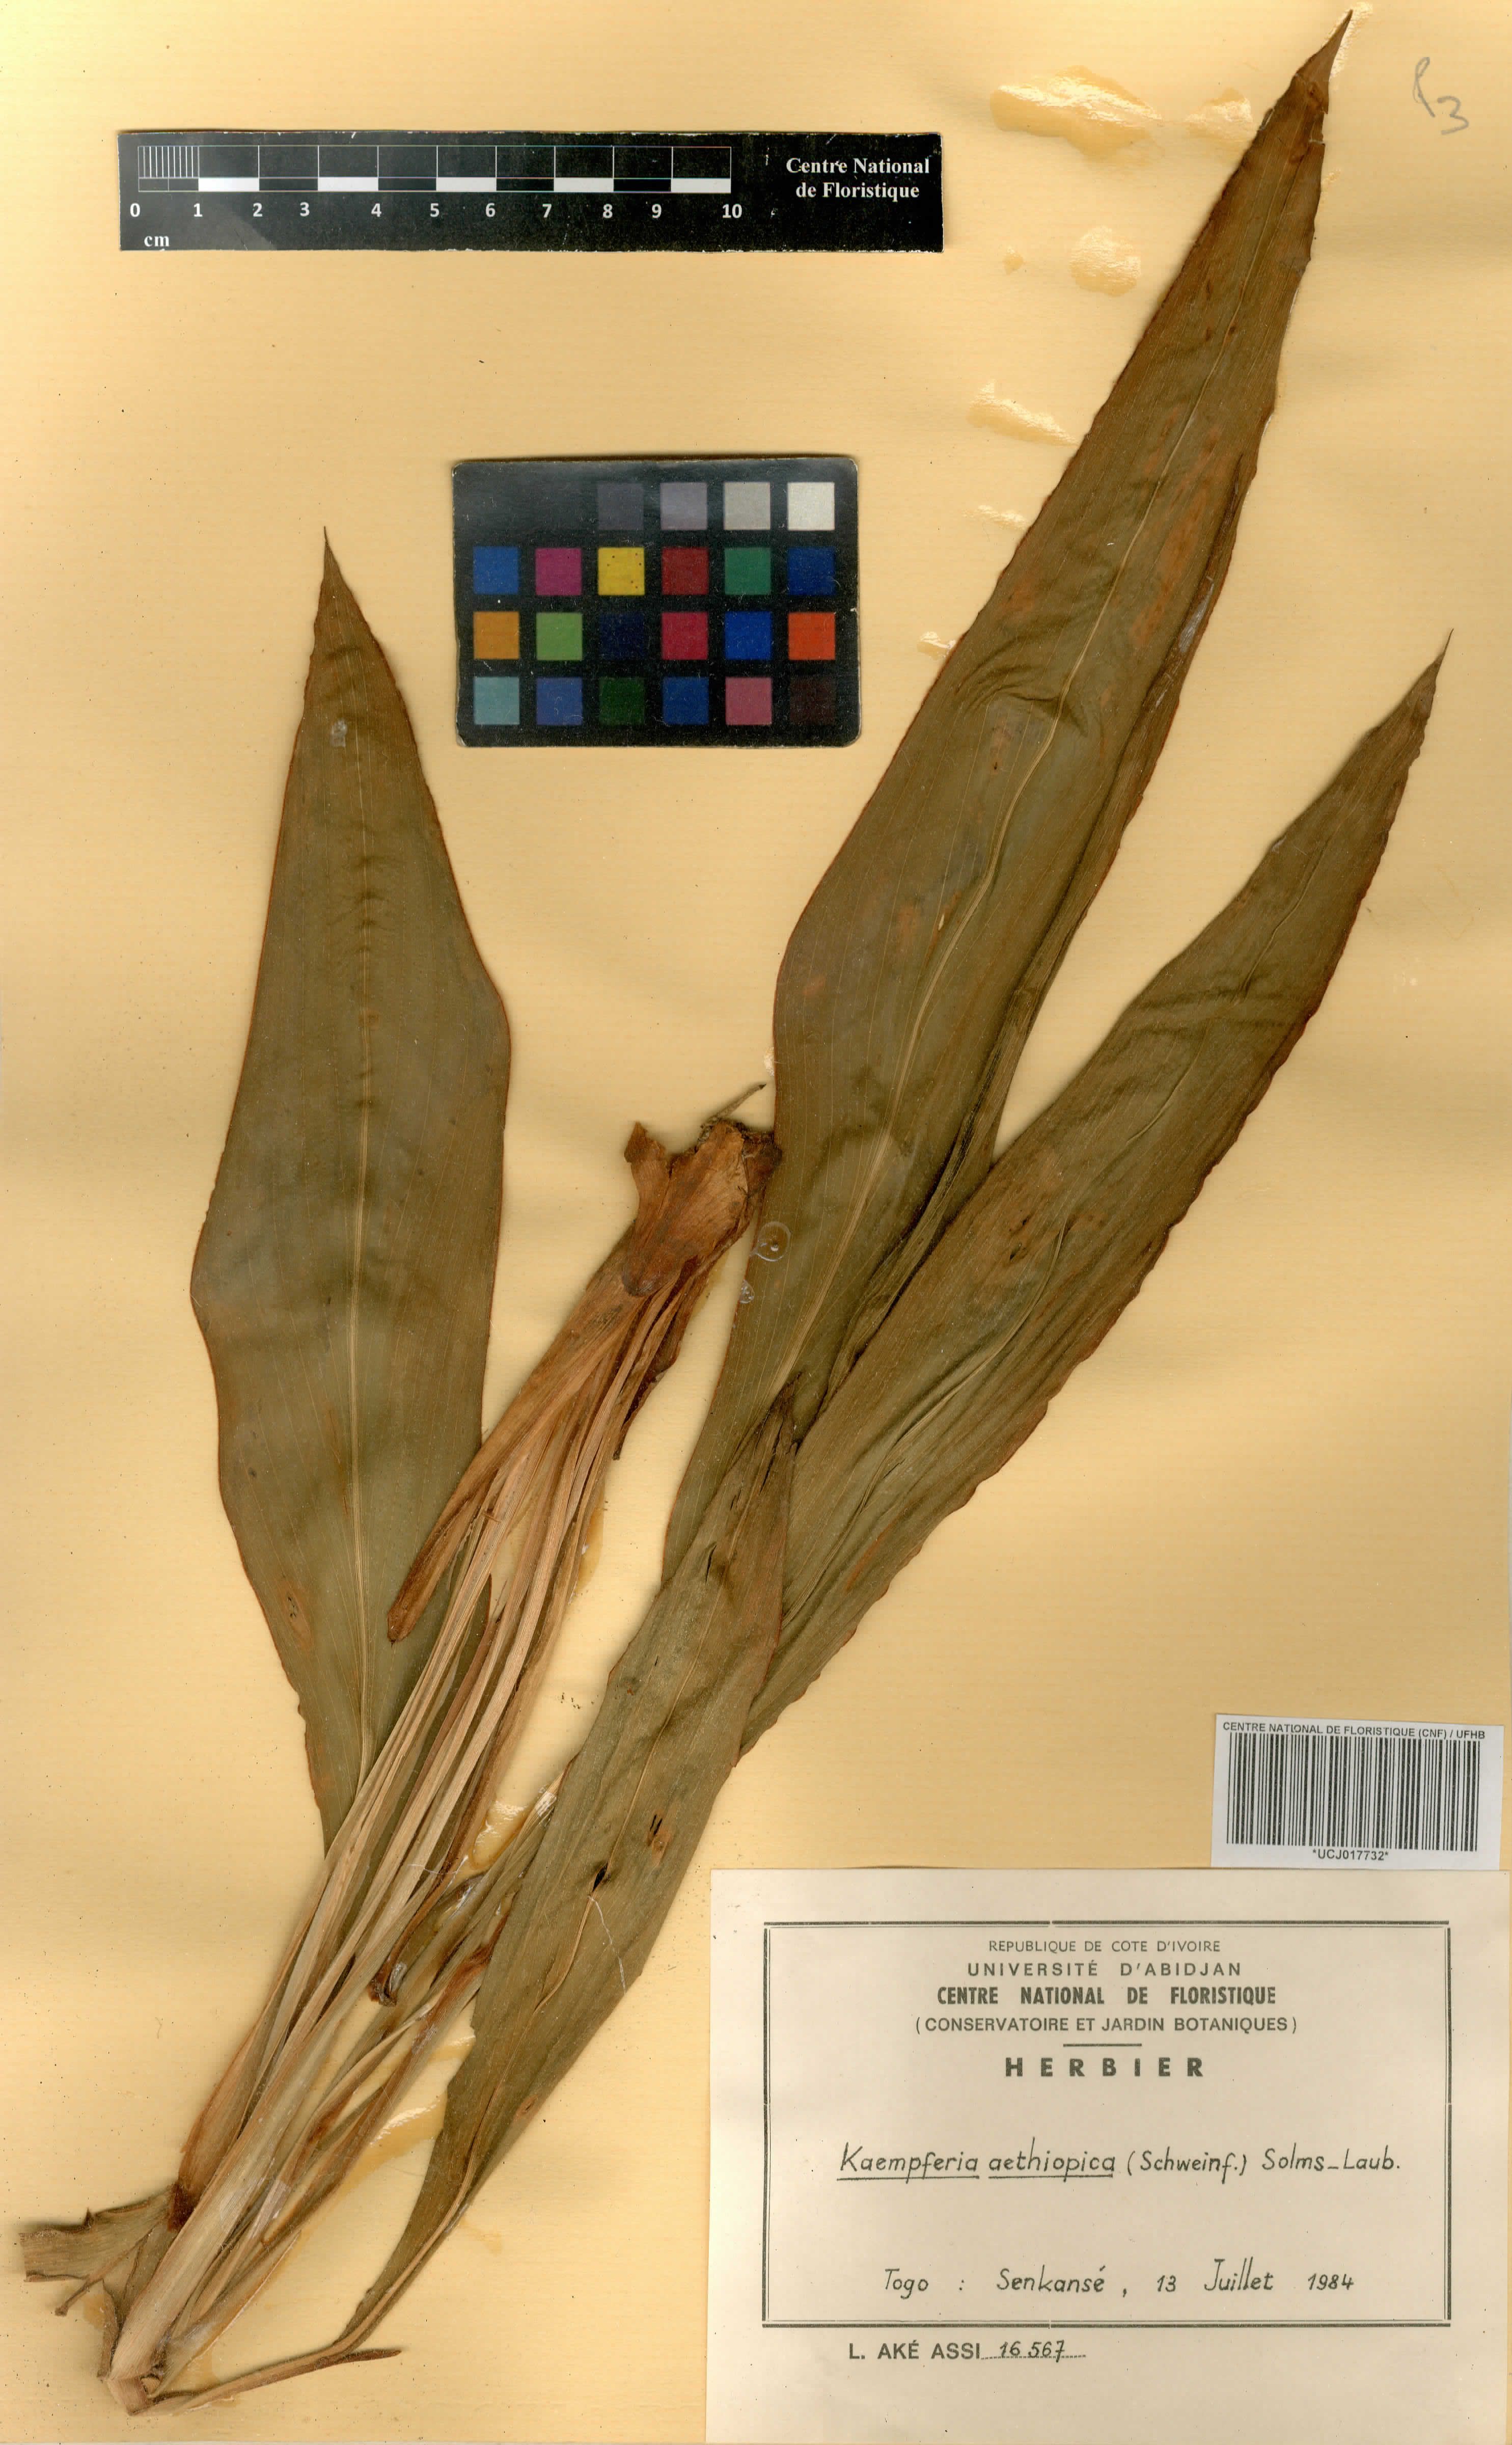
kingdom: Plantae
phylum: Tracheophyta
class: Liliopsida
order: Zingiberales
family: Zingiberaceae
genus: Kaempferia
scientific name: Kaempferia aethiopica
